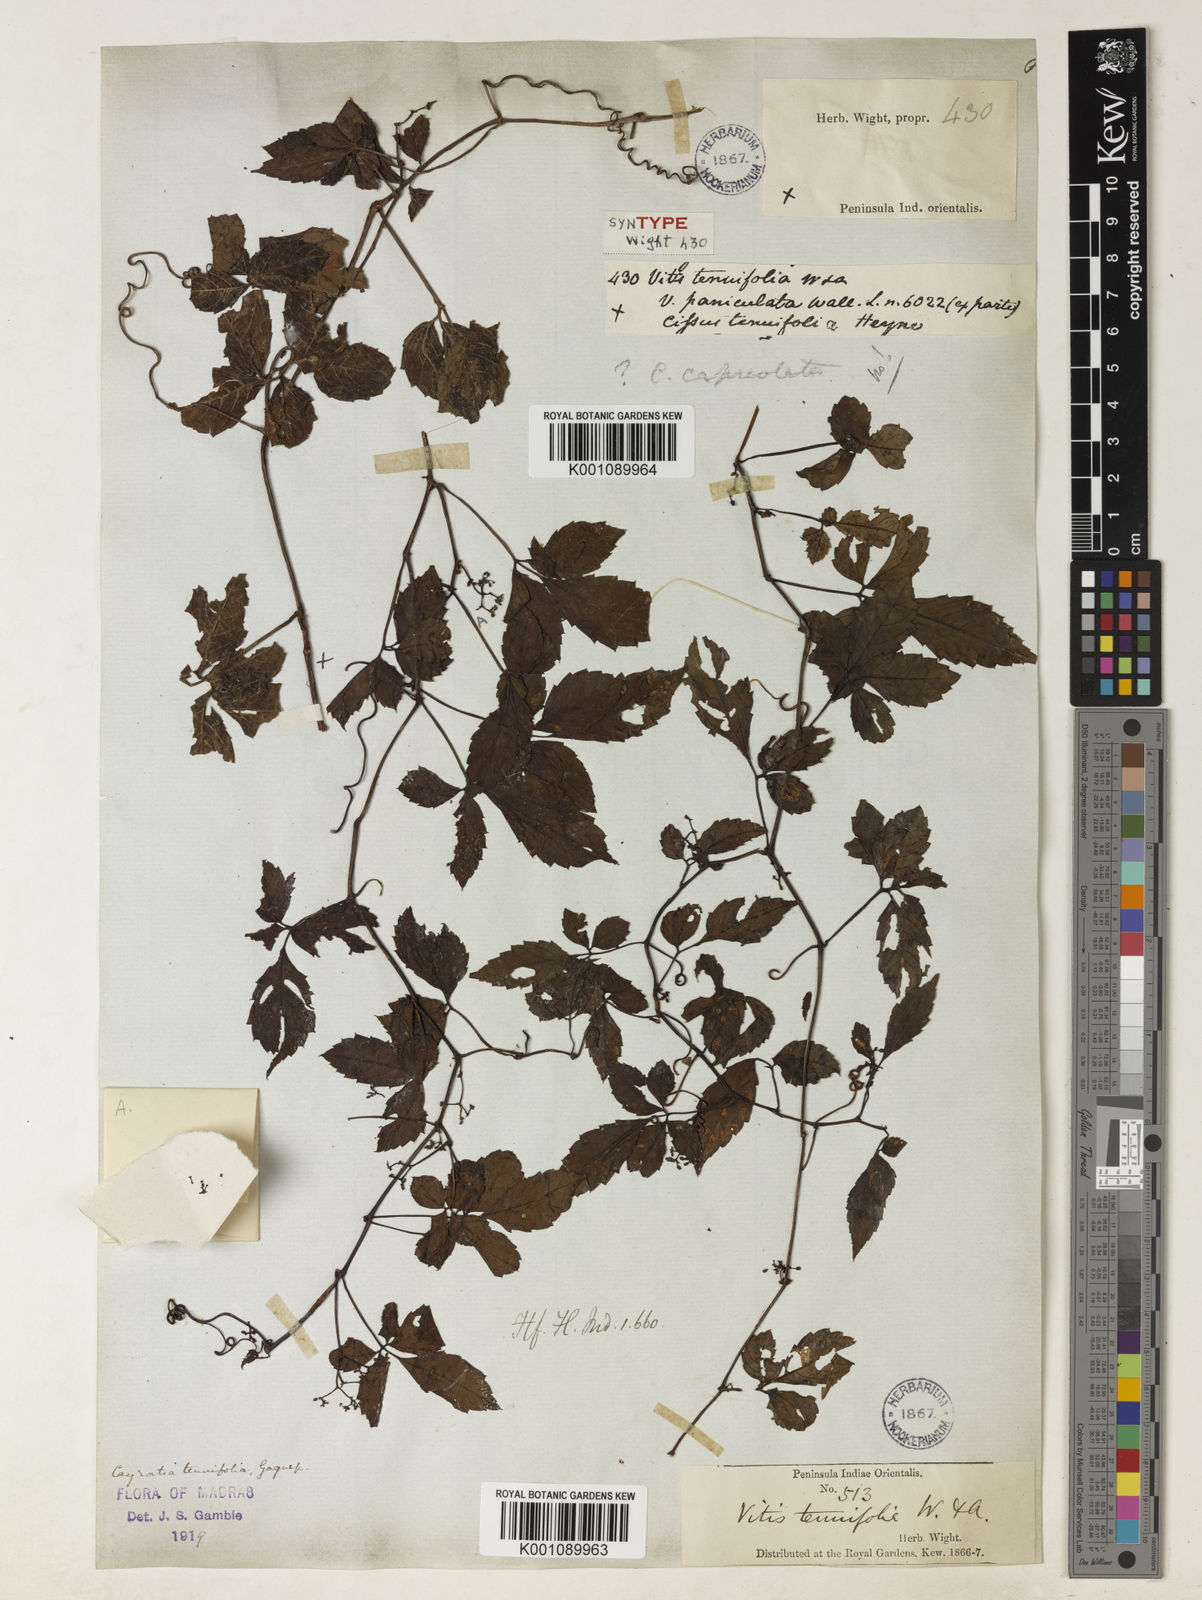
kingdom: Plantae
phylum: Tracheophyta
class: Magnoliopsida
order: Vitales
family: Vitaceae
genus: Causonis
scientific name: Causonis tenuifolia
